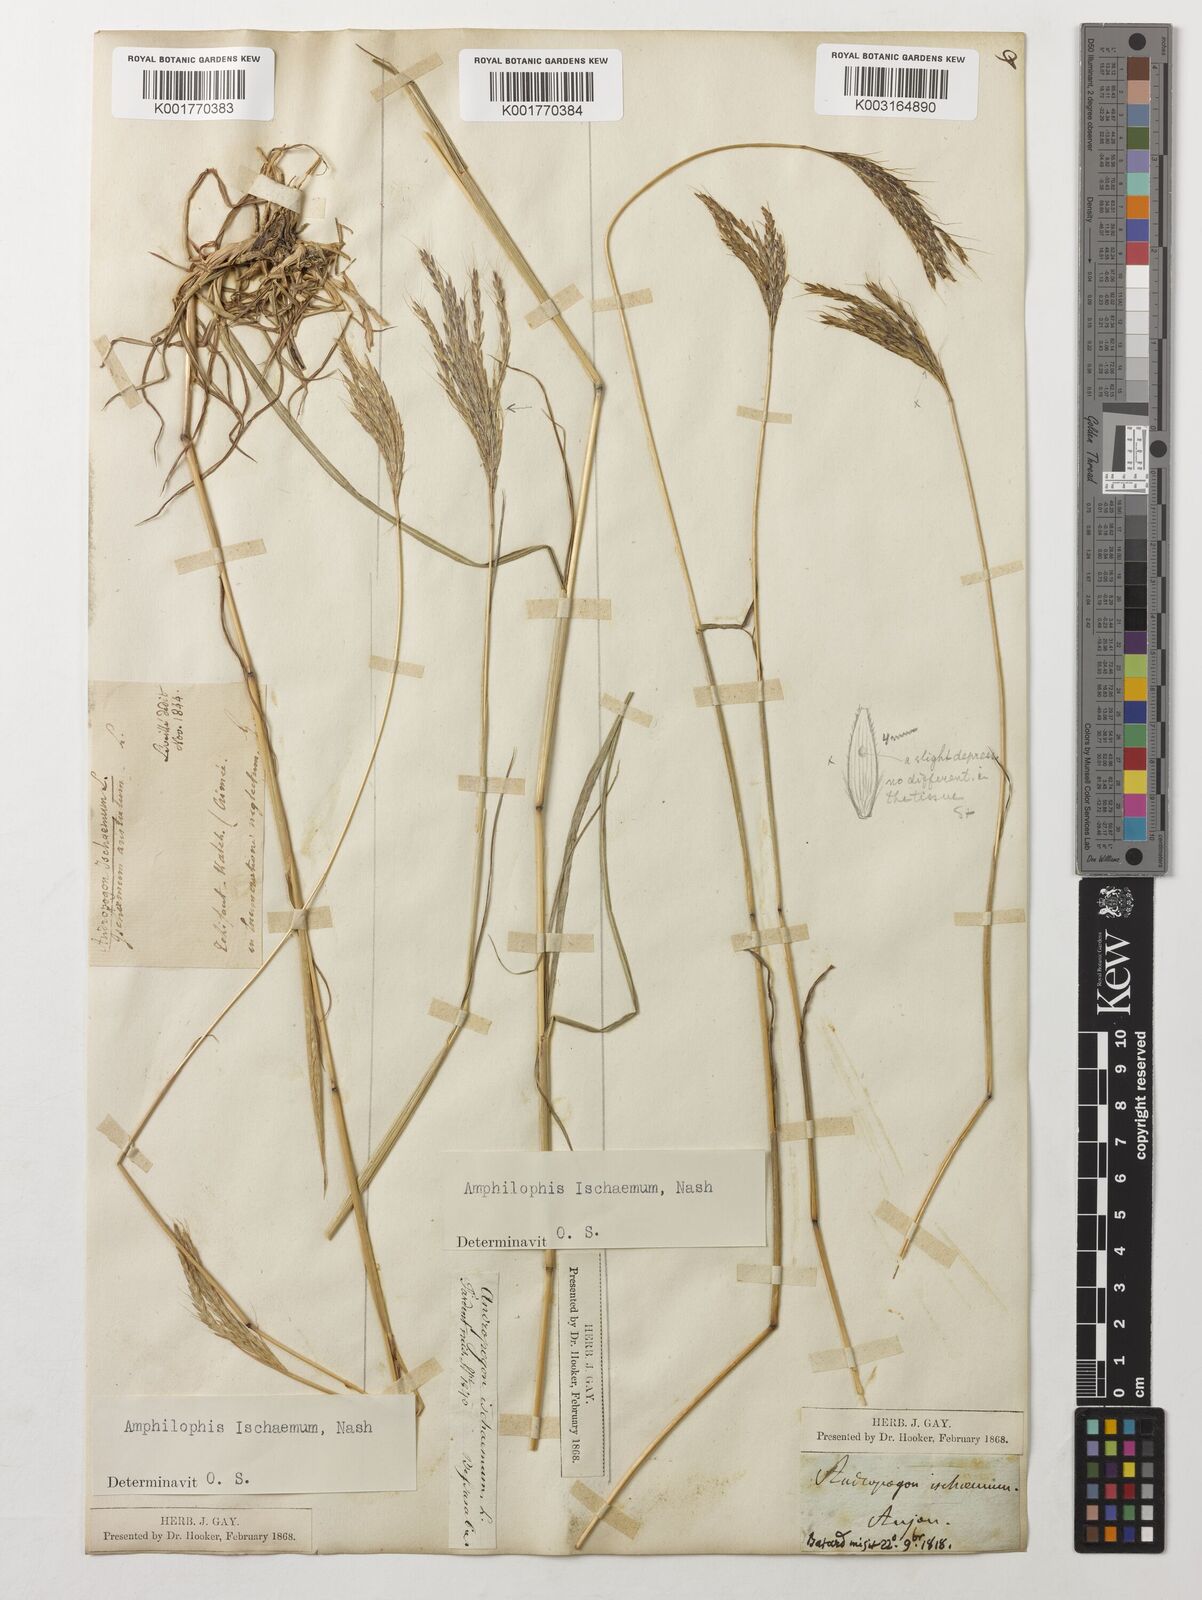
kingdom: Plantae
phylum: Tracheophyta
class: Liliopsida
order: Poales
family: Poaceae
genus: Bothriochloa
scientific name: Bothriochloa ischaemum
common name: Yellow bluestem
